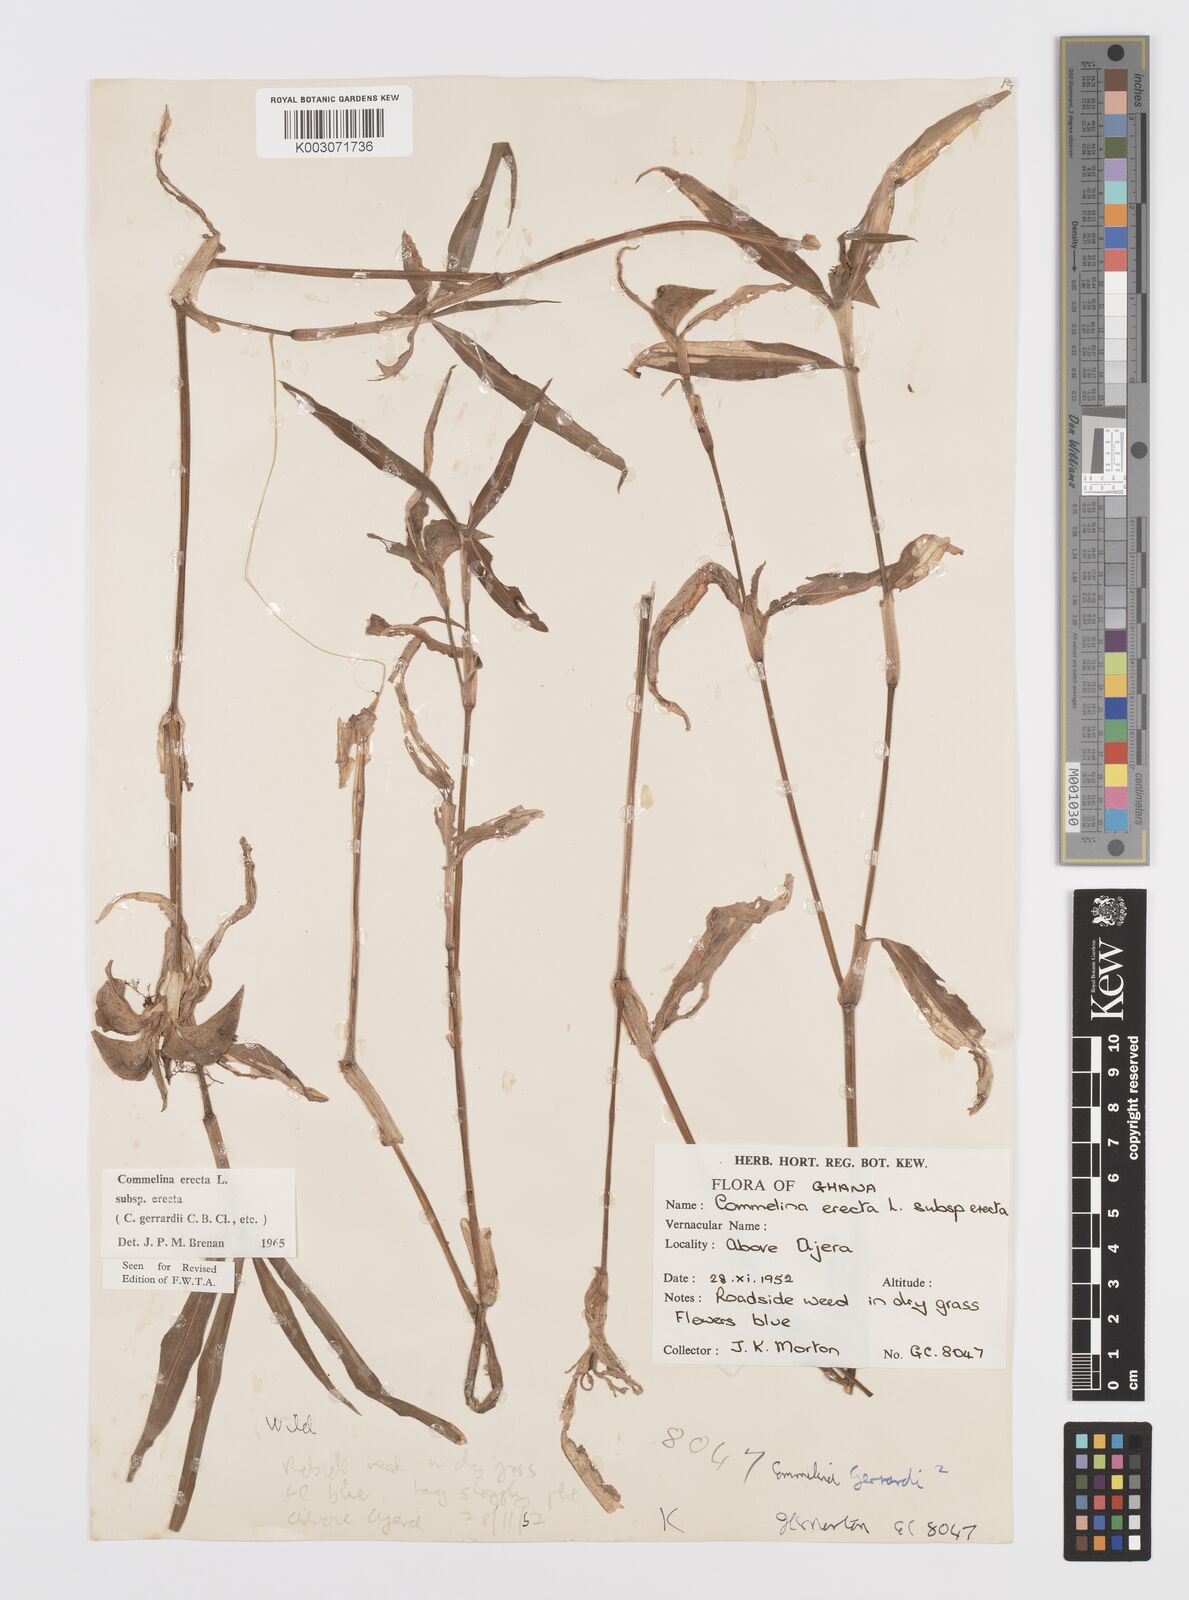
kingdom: Plantae
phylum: Tracheophyta
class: Liliopsida
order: Commelinales
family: Commelinaceae
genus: Commelina
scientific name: Commelina erecta
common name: Blousel blommetjie
